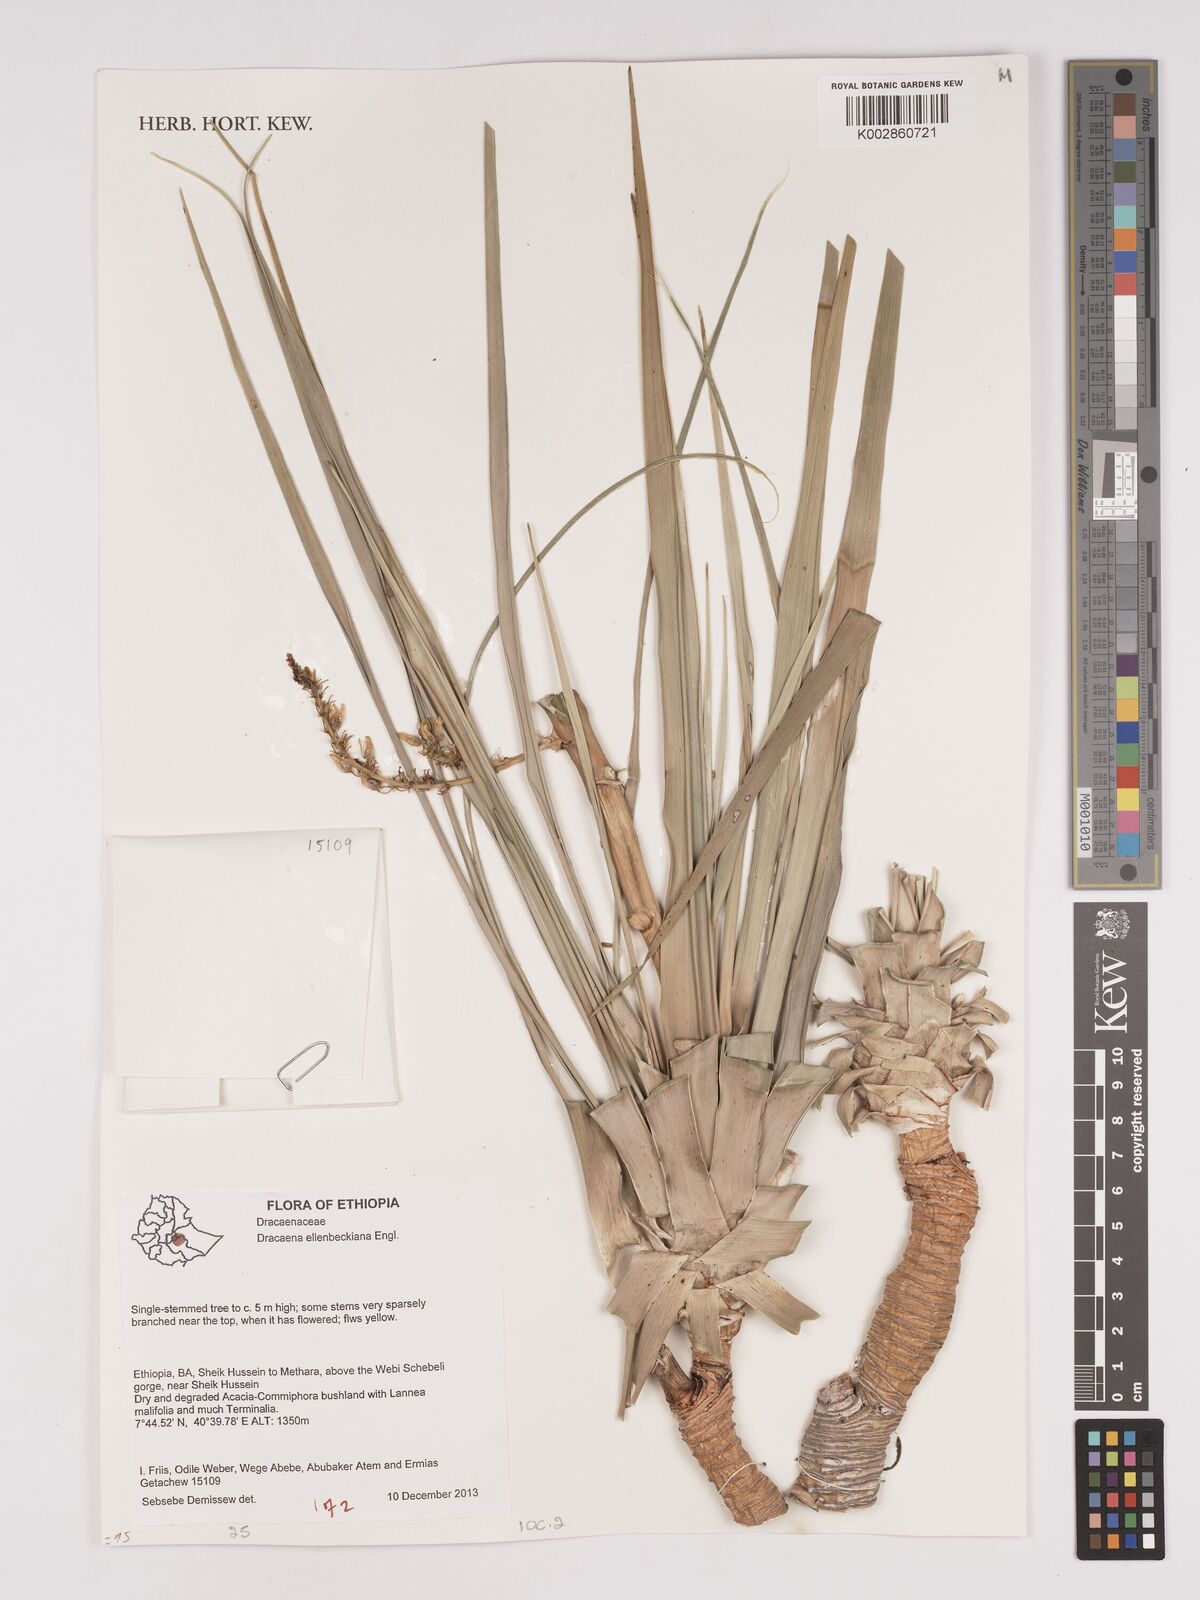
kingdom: Plantae
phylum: Tracheophyta
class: Liliopsida
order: Asparagales
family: Asparagaceae
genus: Dracaena
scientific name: Dracaena ellenbeckiana
